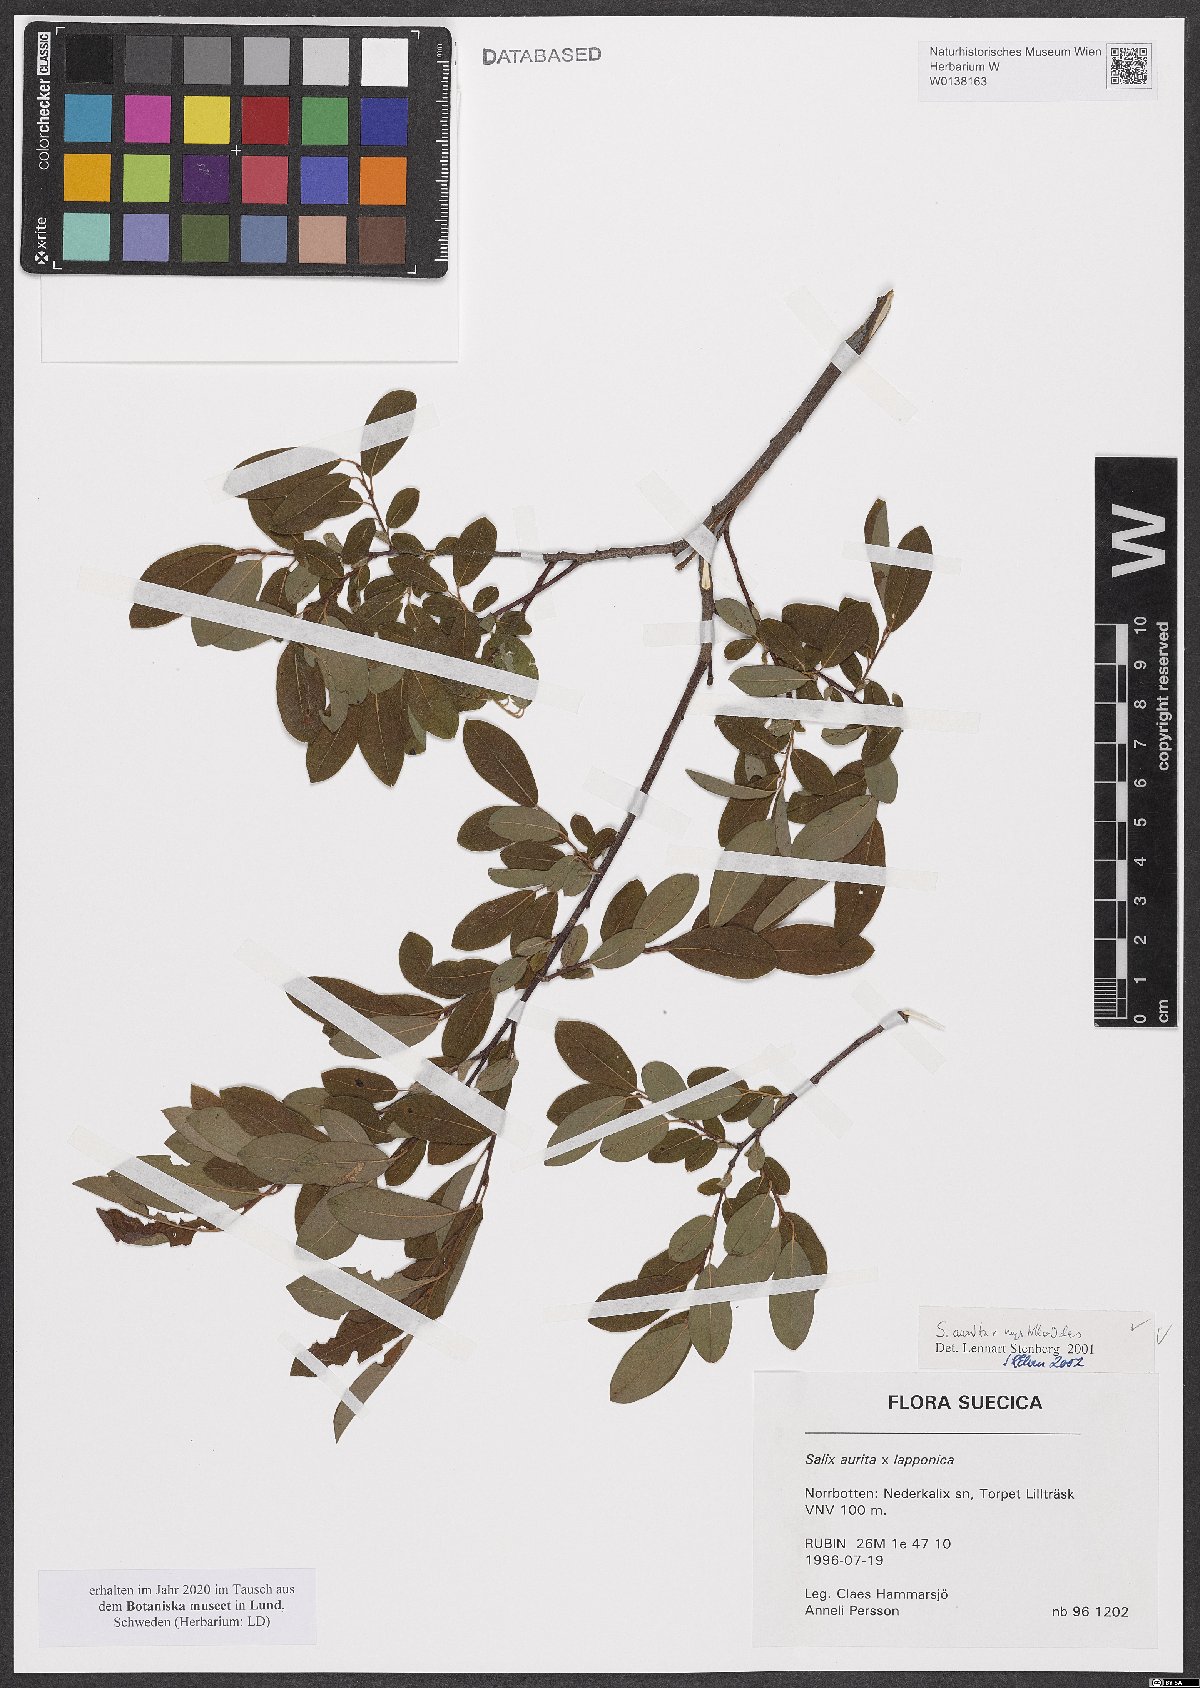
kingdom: Plantae
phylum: Tracheophyta
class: Magnoliopsida
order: Malpighiales
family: Salicaceae
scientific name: Salicaceae
